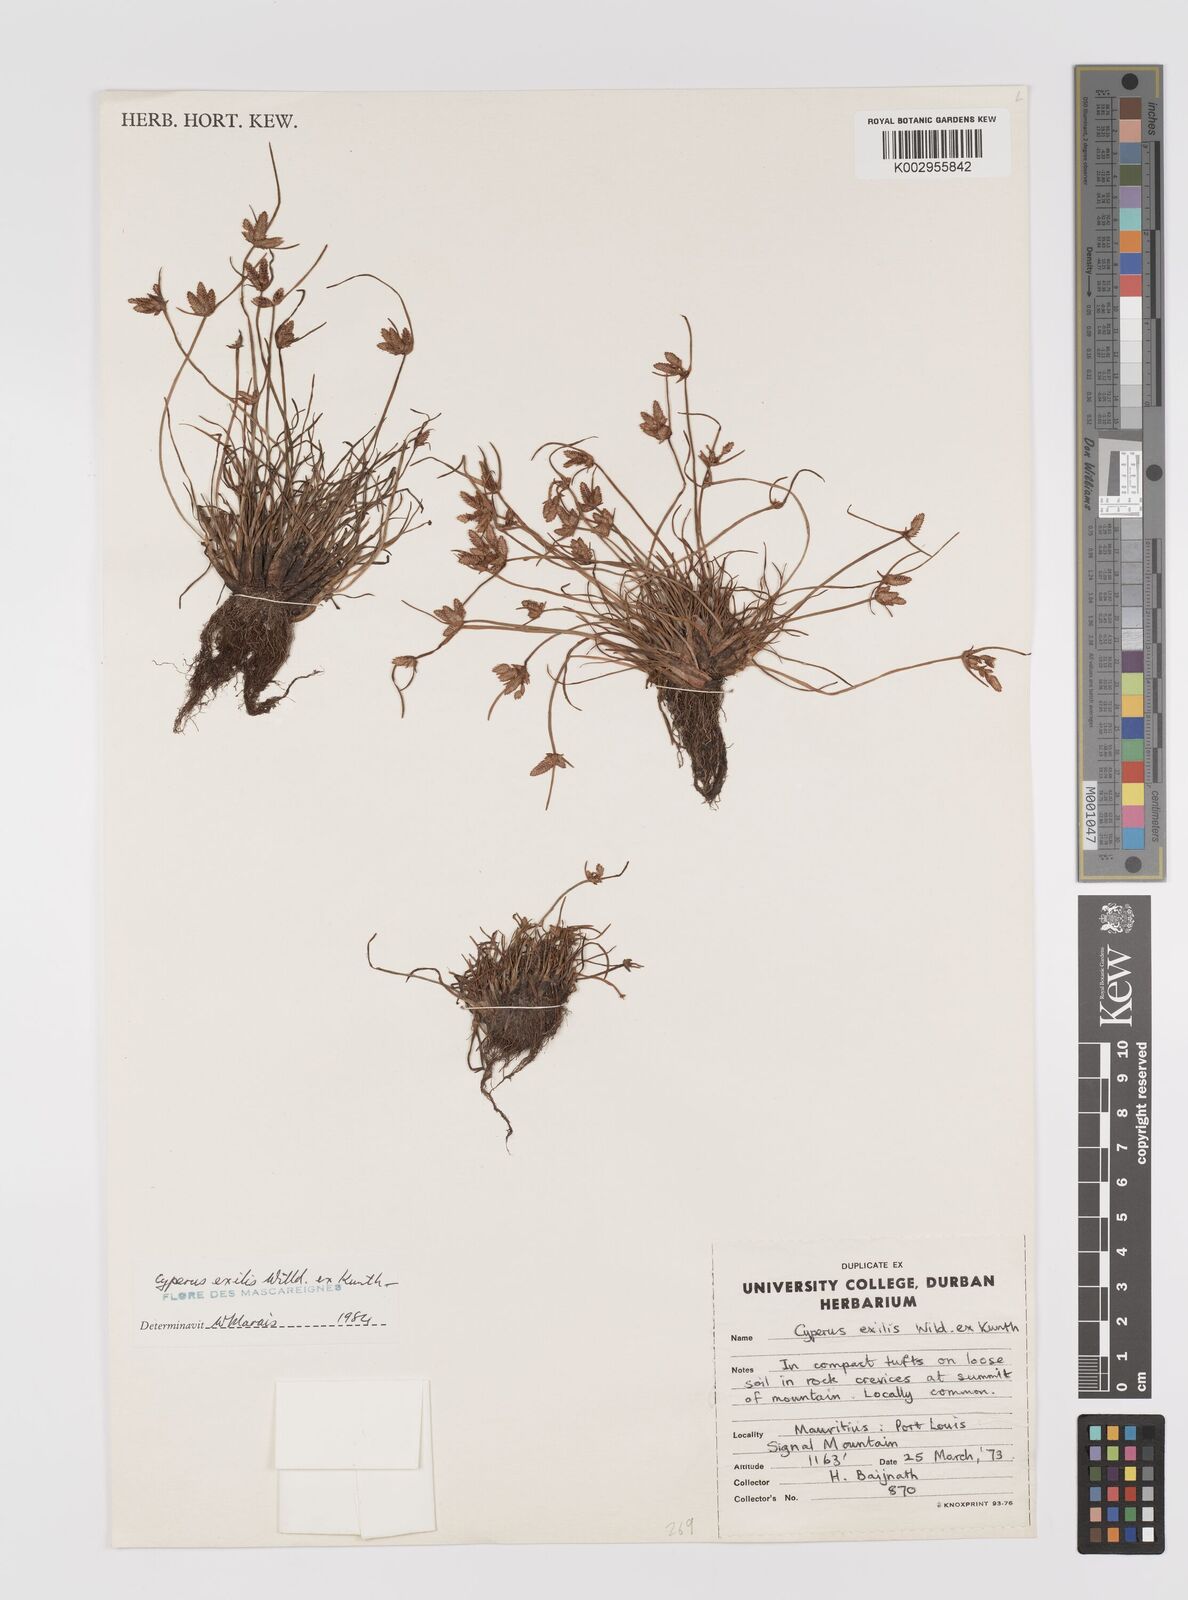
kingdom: Plantae
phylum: Tracheophyta
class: Liliopsida
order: Poales
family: Cyperaceae
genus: Cyperus
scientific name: Cyperus rotundus
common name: Nutgrass
